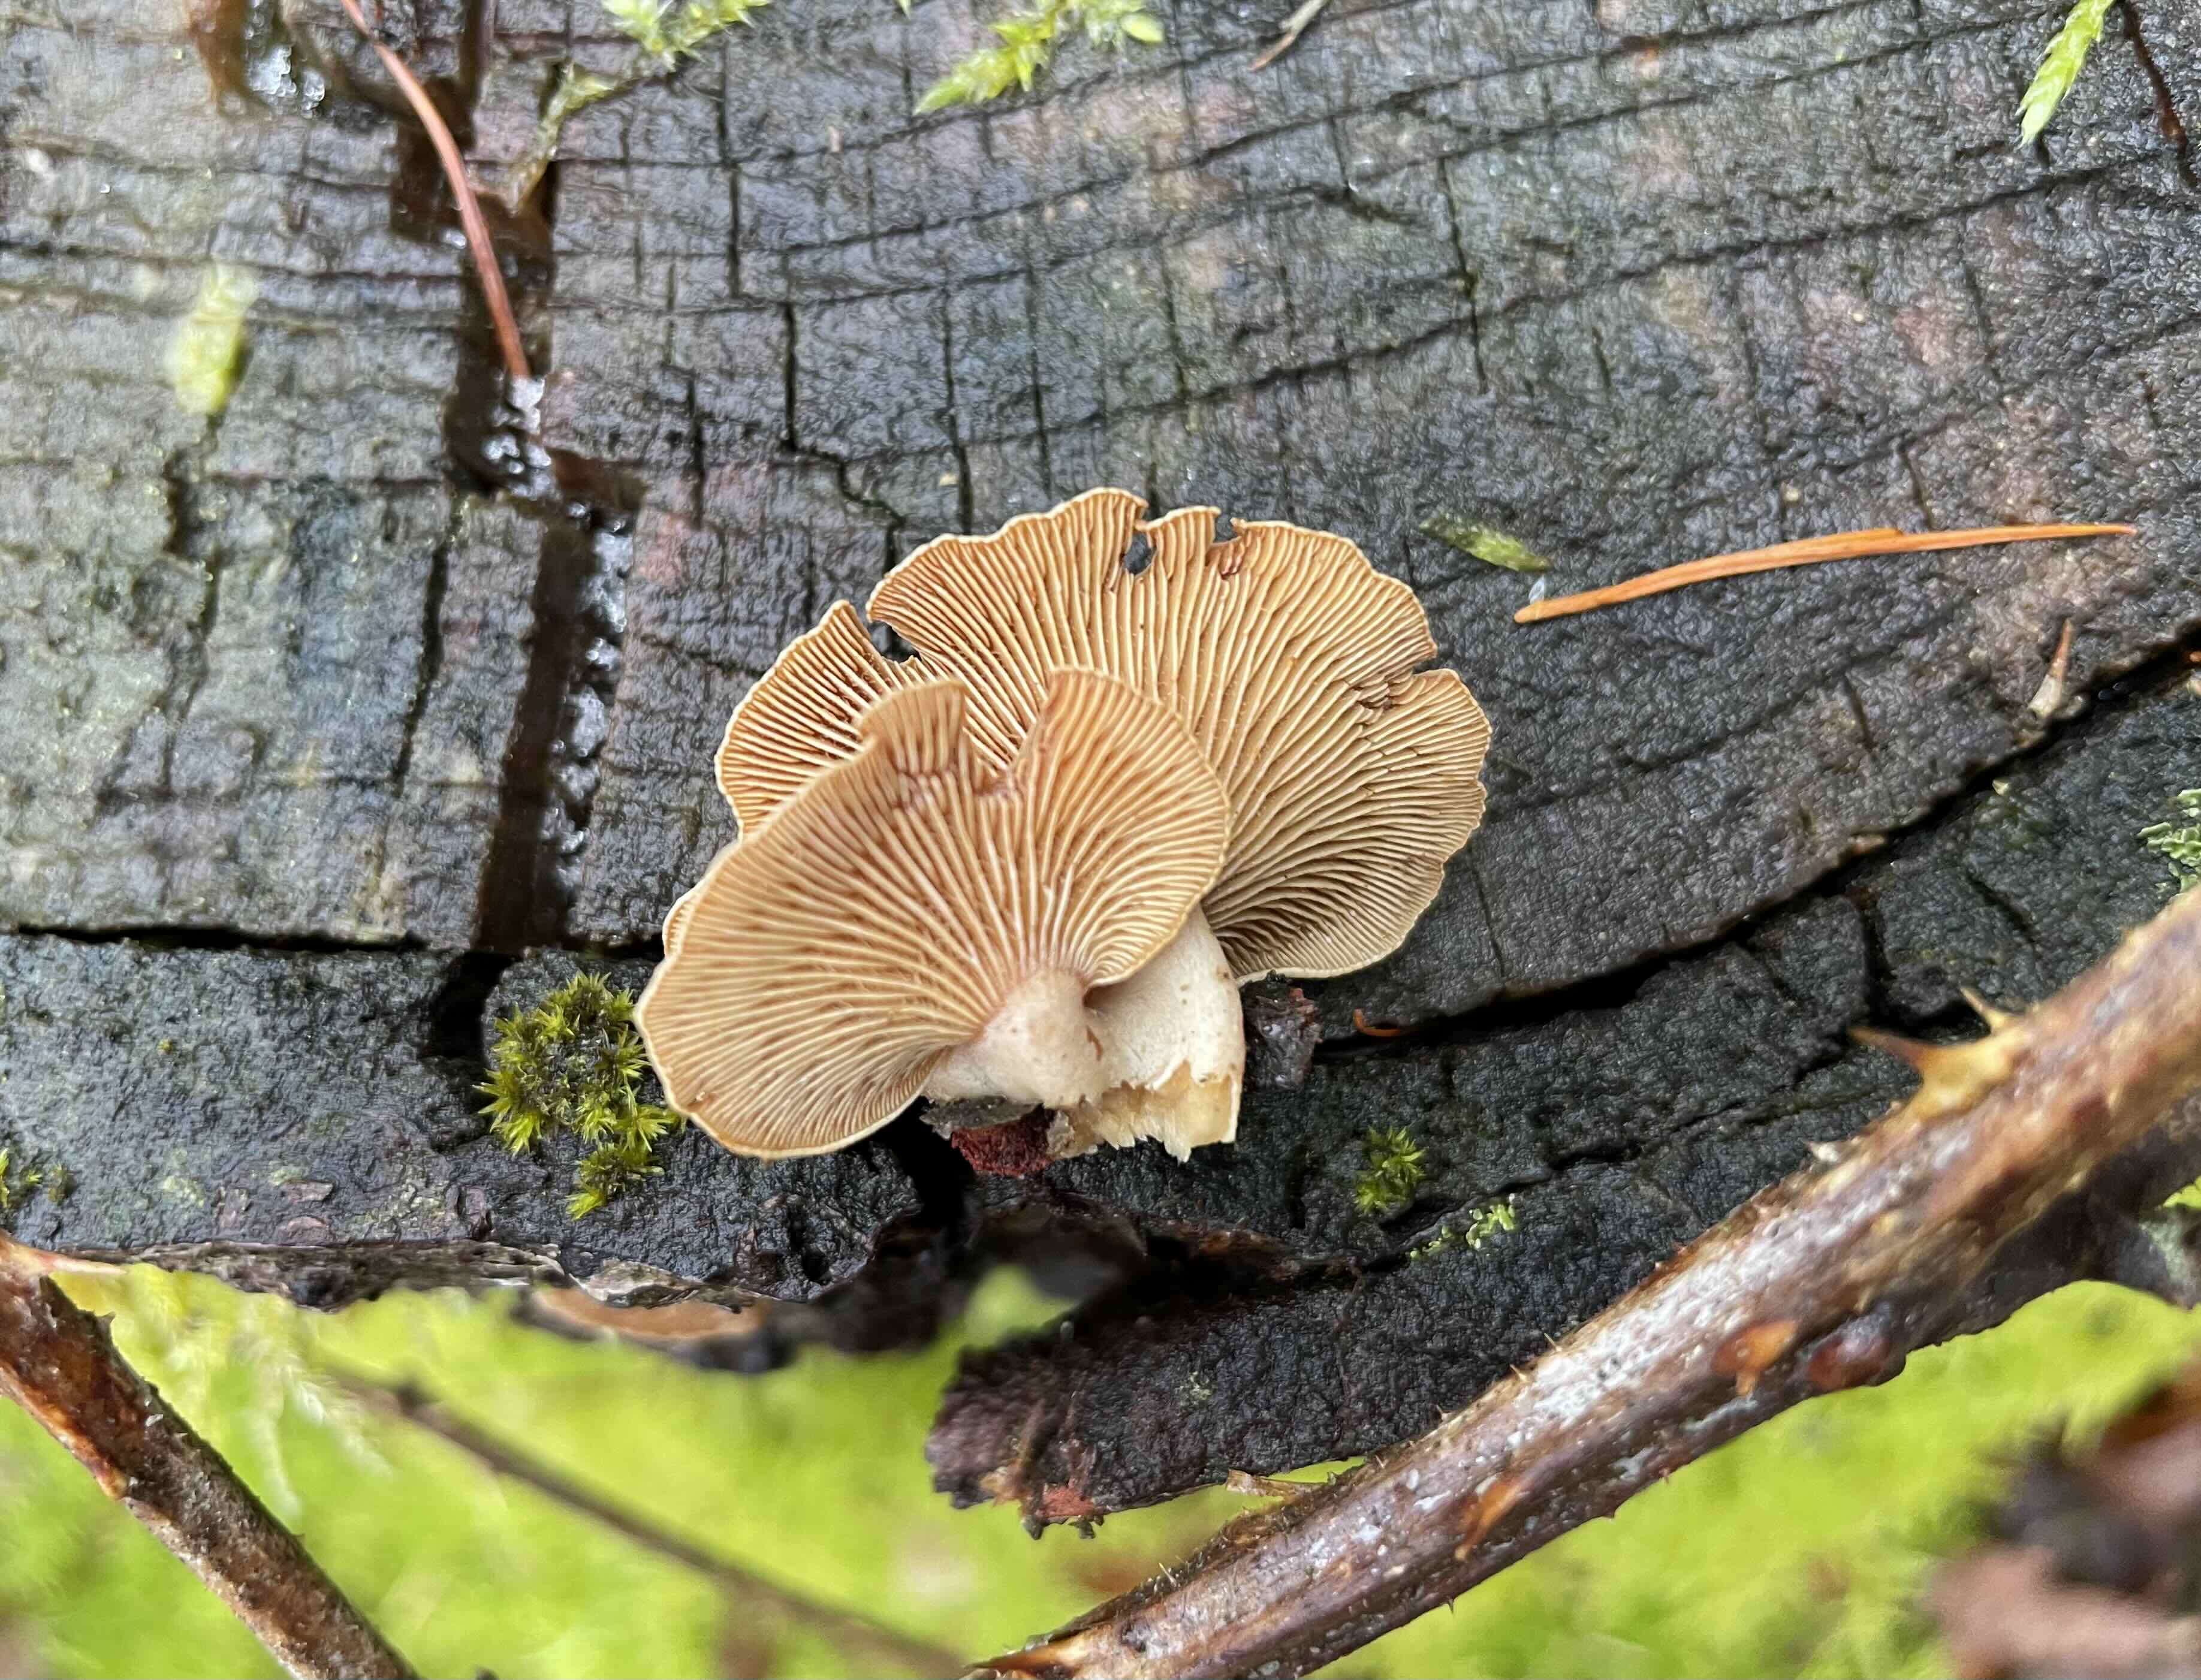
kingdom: Fungi
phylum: Basidiomycota
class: Agaricomycetes
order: Agaricales
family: Mycenaceae
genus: Panellus
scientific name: Panellus stipticus
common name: kliddet epaulethat
